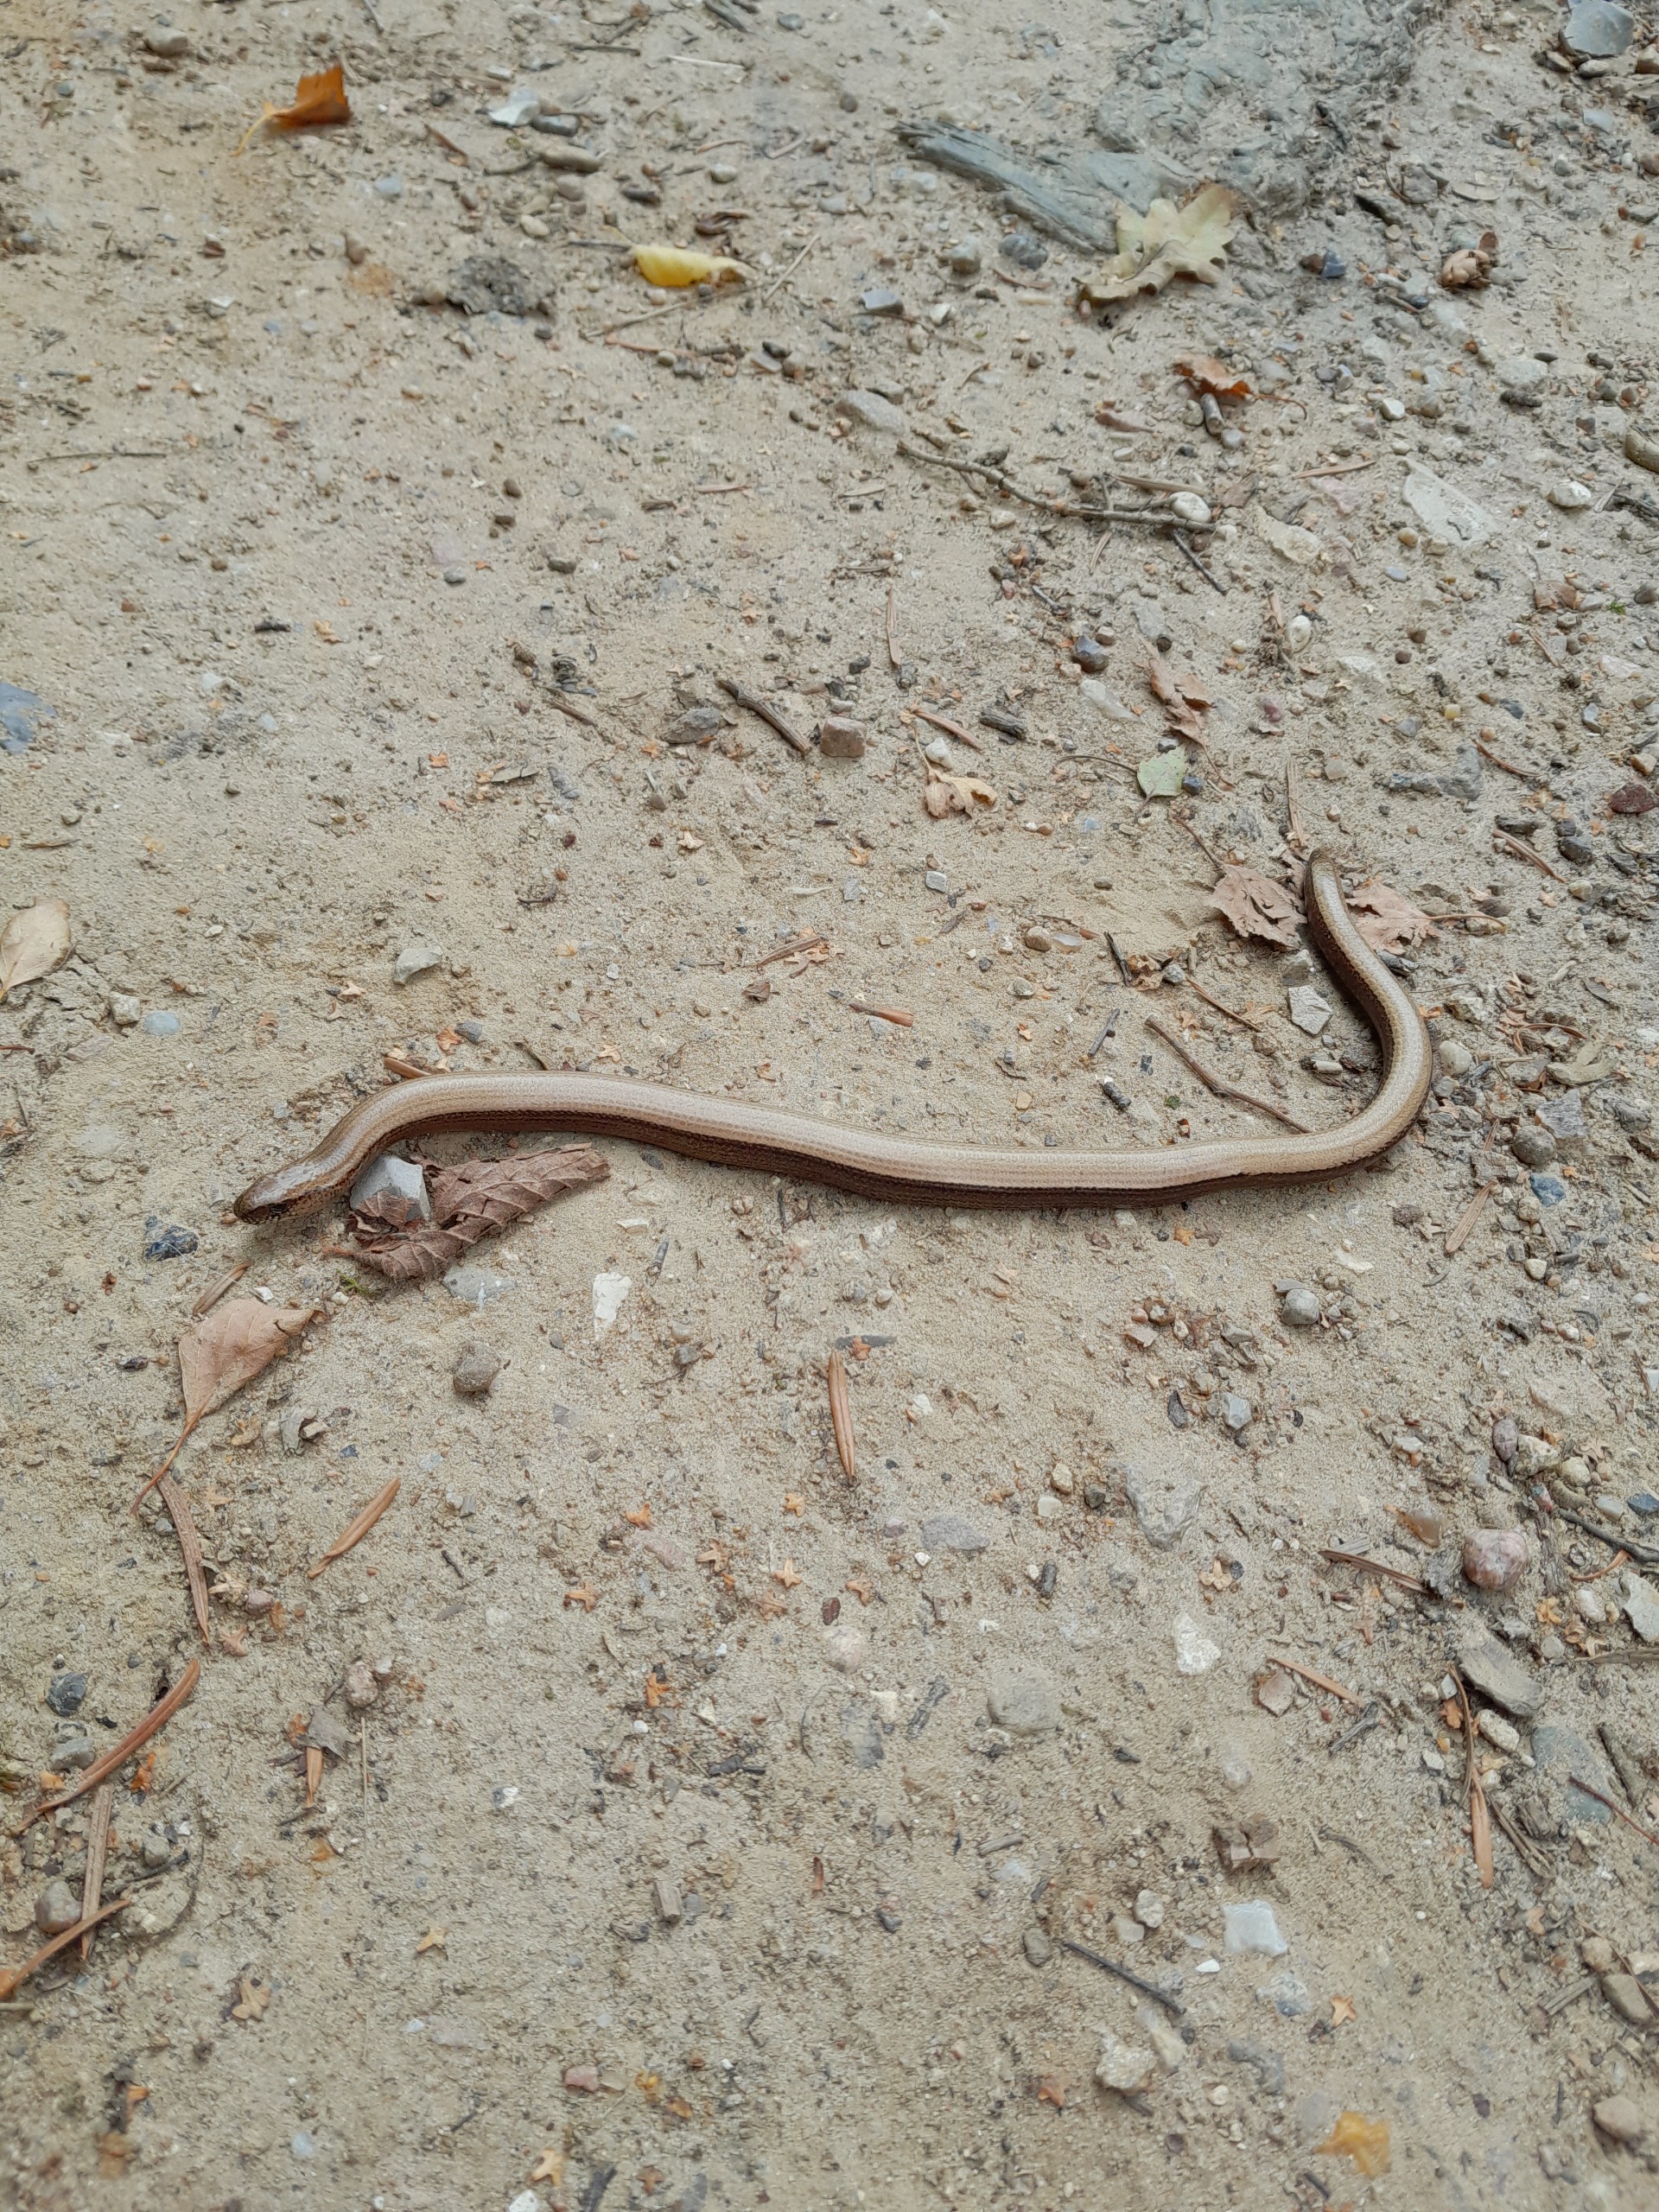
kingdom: Animalia
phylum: Chordata
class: Squamata
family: Anguidae
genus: Anguis
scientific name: Anguis fragilis
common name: Stålorm
